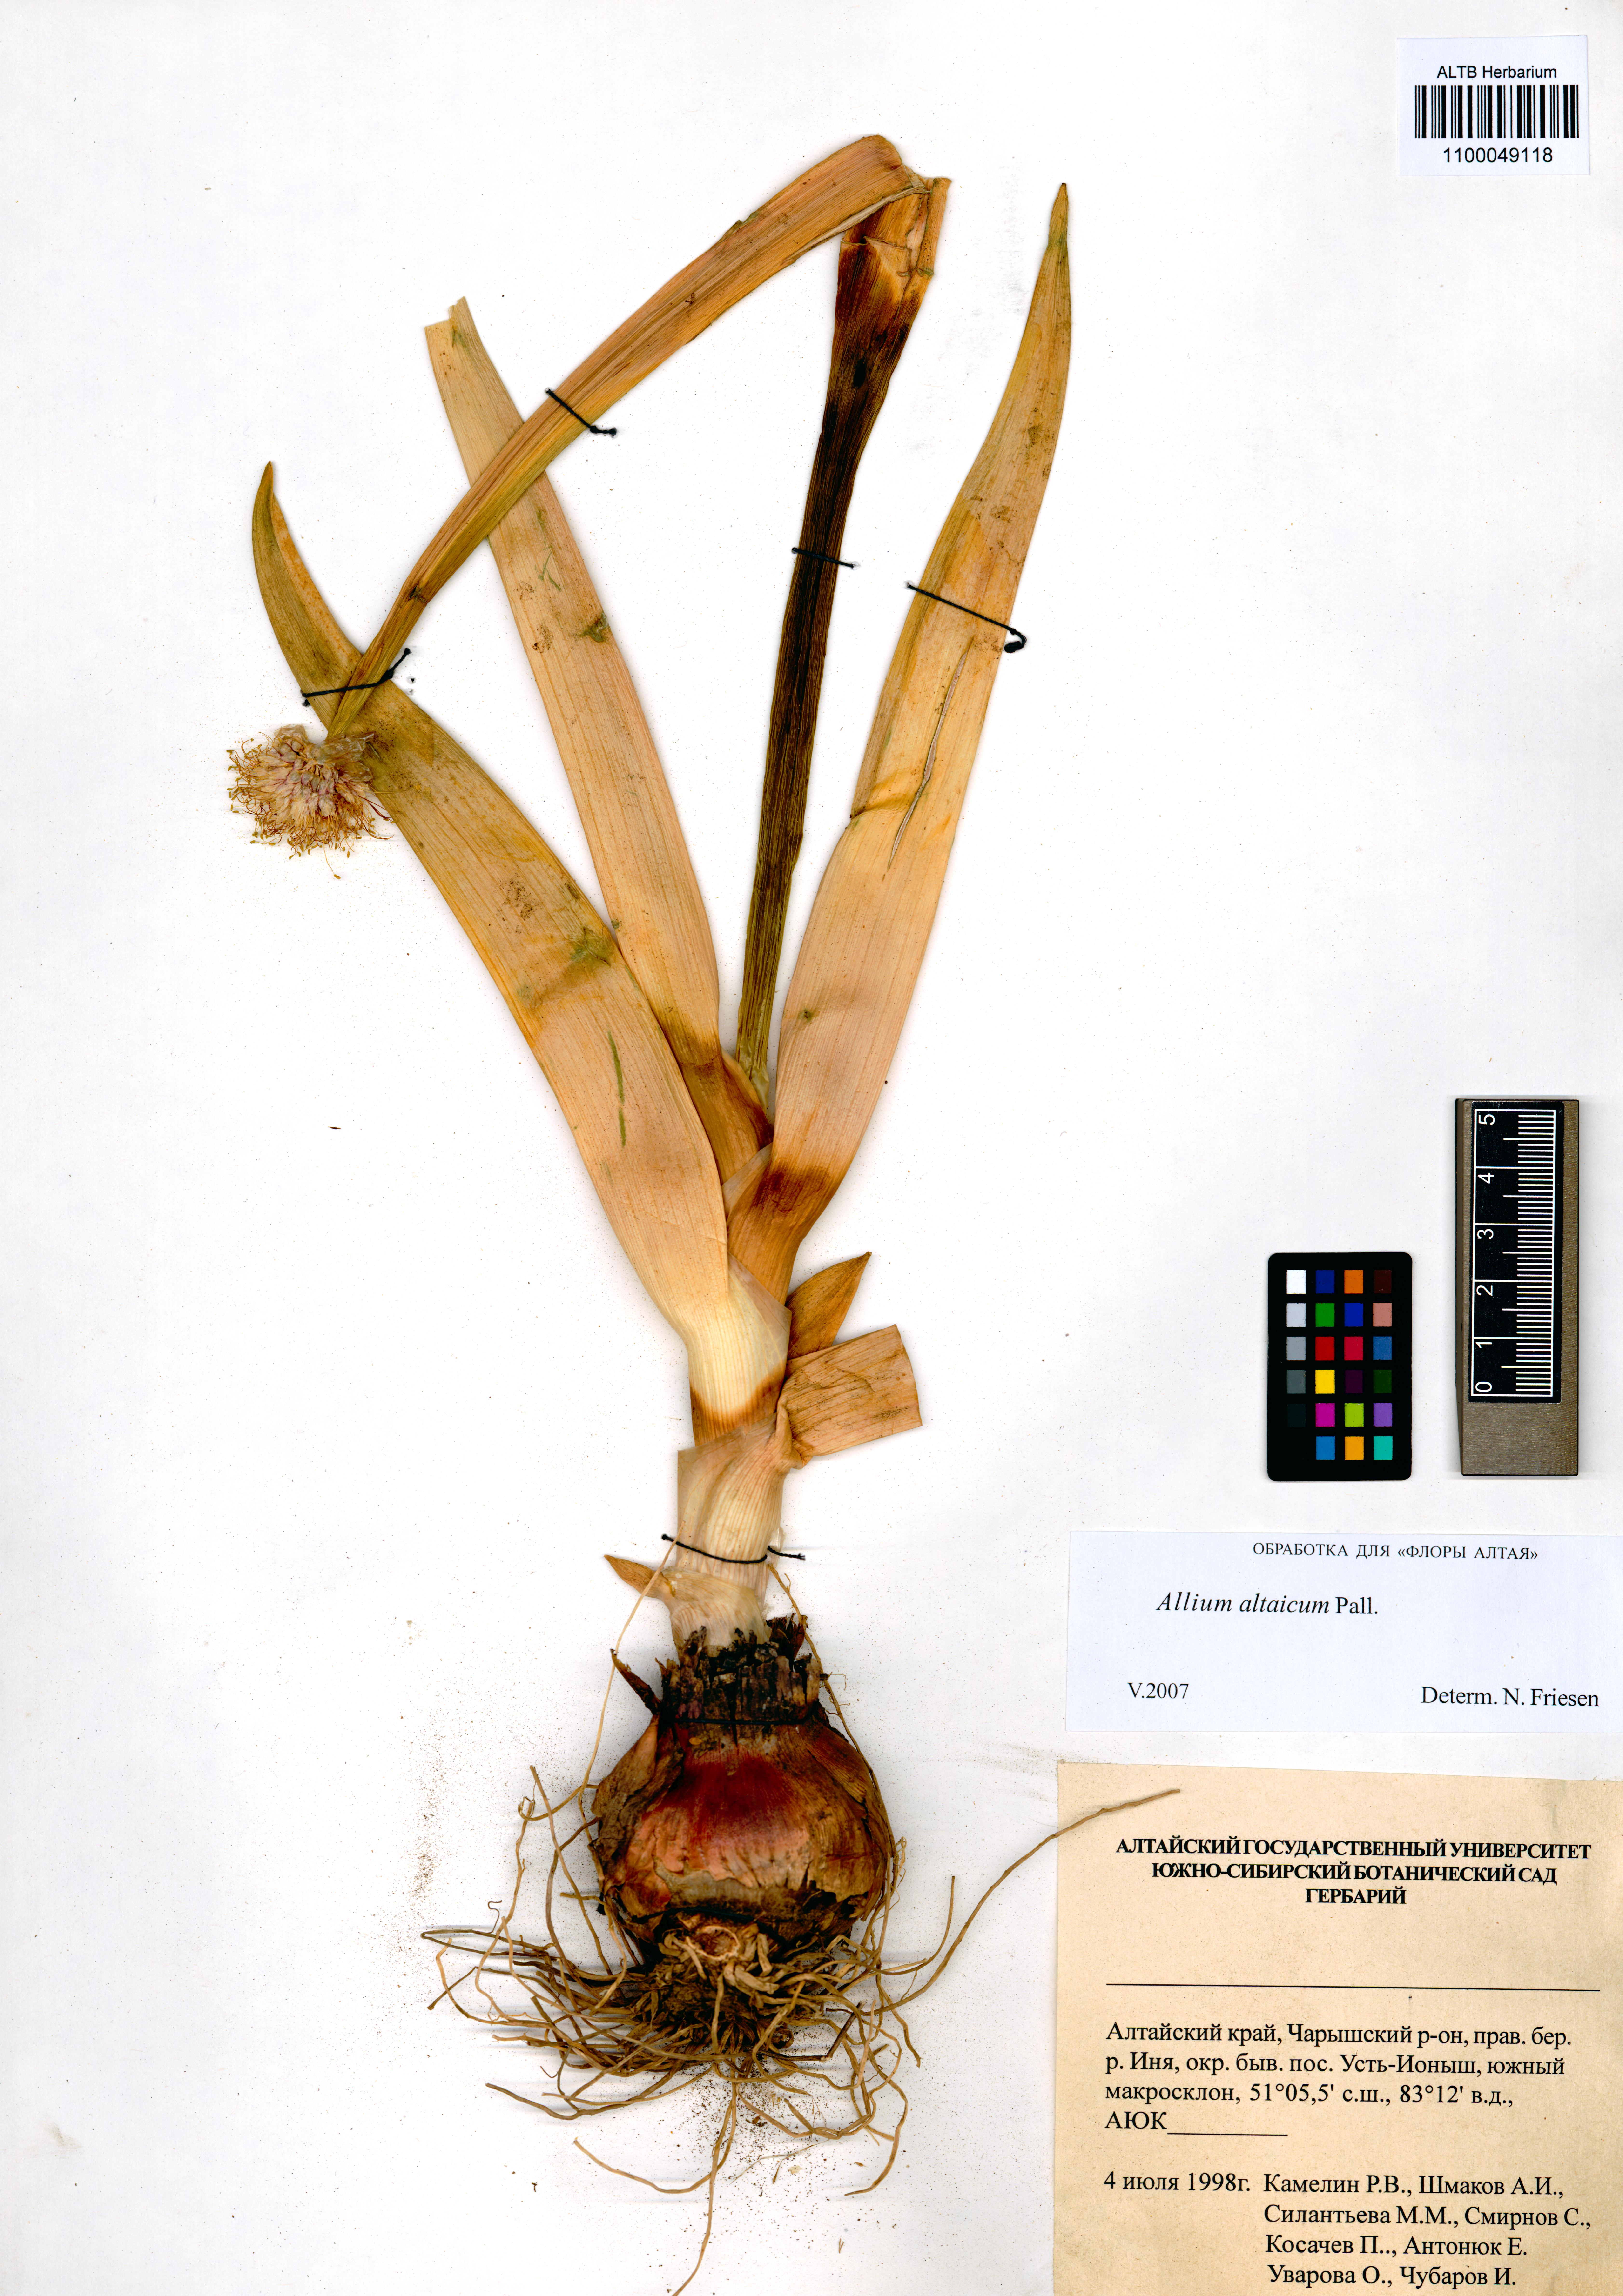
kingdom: Plantae
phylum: Tracheophyta
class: Liliopsida
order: Asparagales
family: Amaryllidaceae
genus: Allium
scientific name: Allium altaicum
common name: Altai onion
